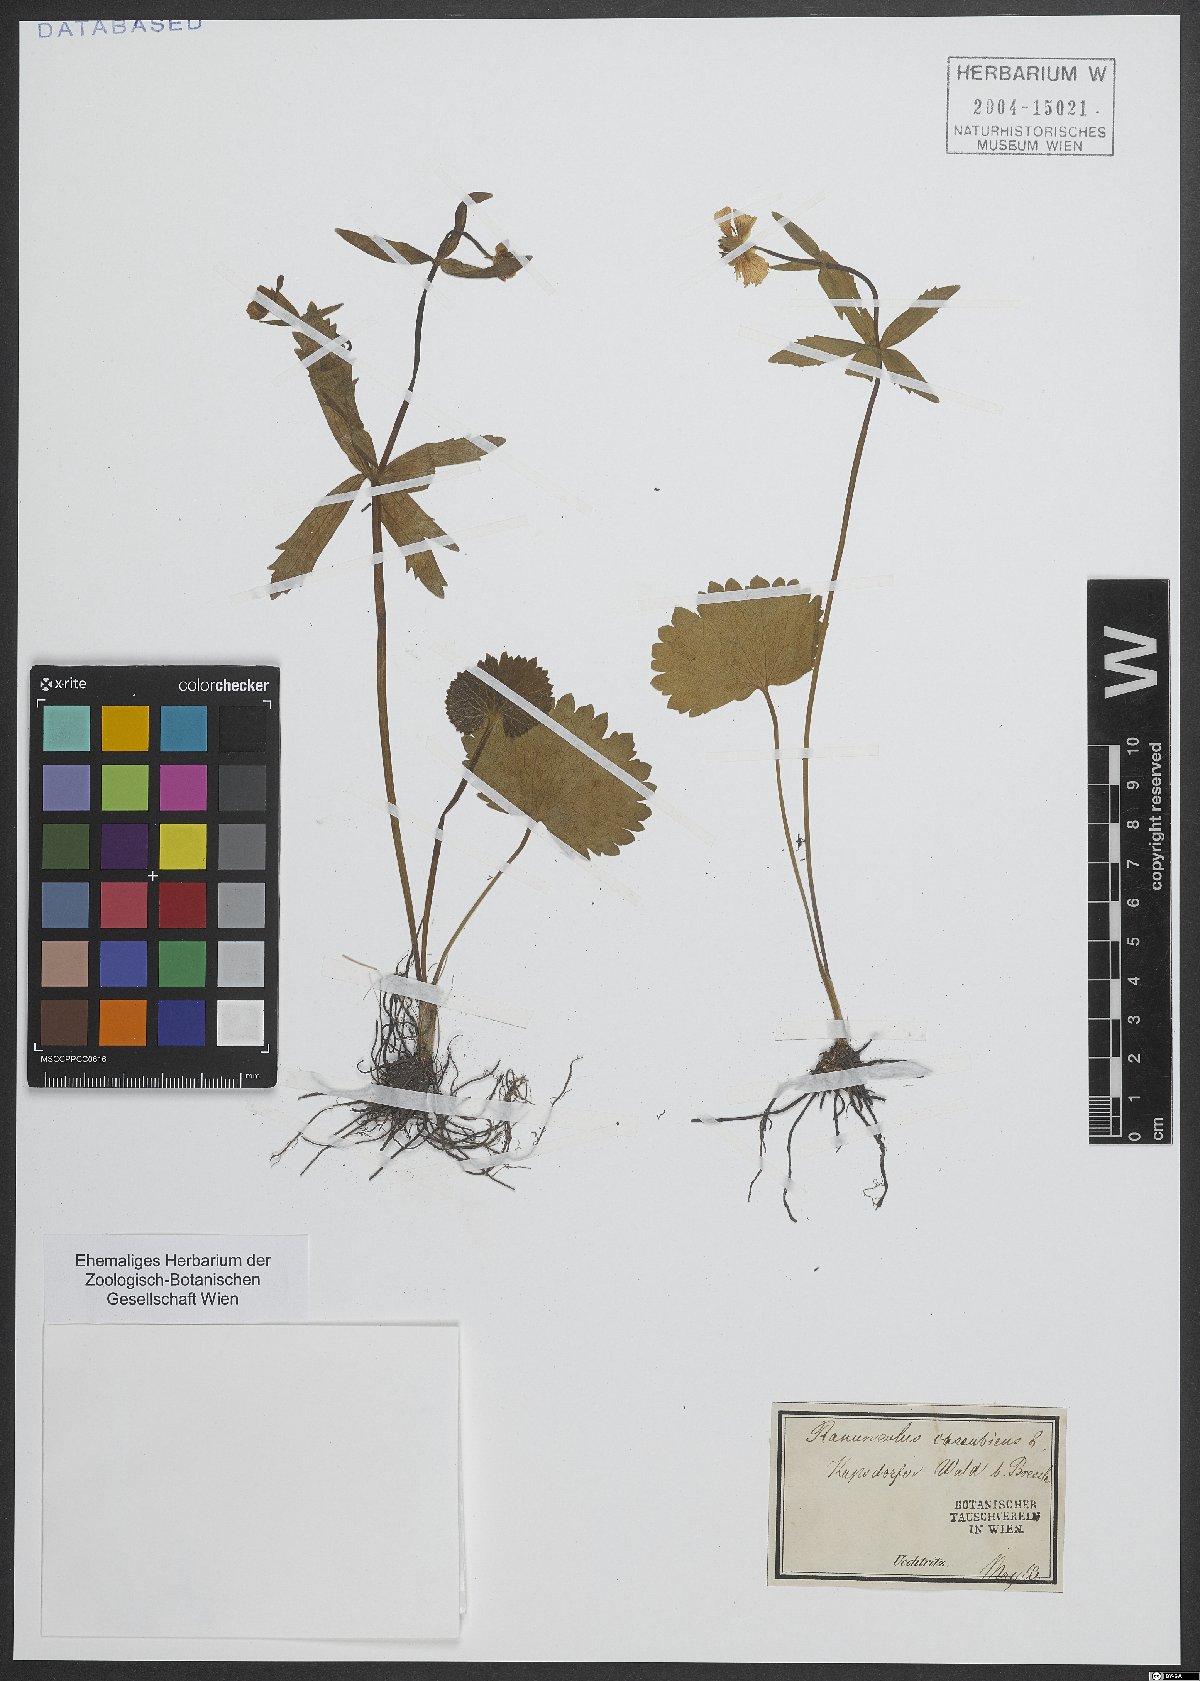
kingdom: Plantae
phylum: Tracheophyta
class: Magnoliopsida
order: Ranunculales
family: Ranunculaceae
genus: Ranunculus
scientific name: Ranunculus cassubicus
